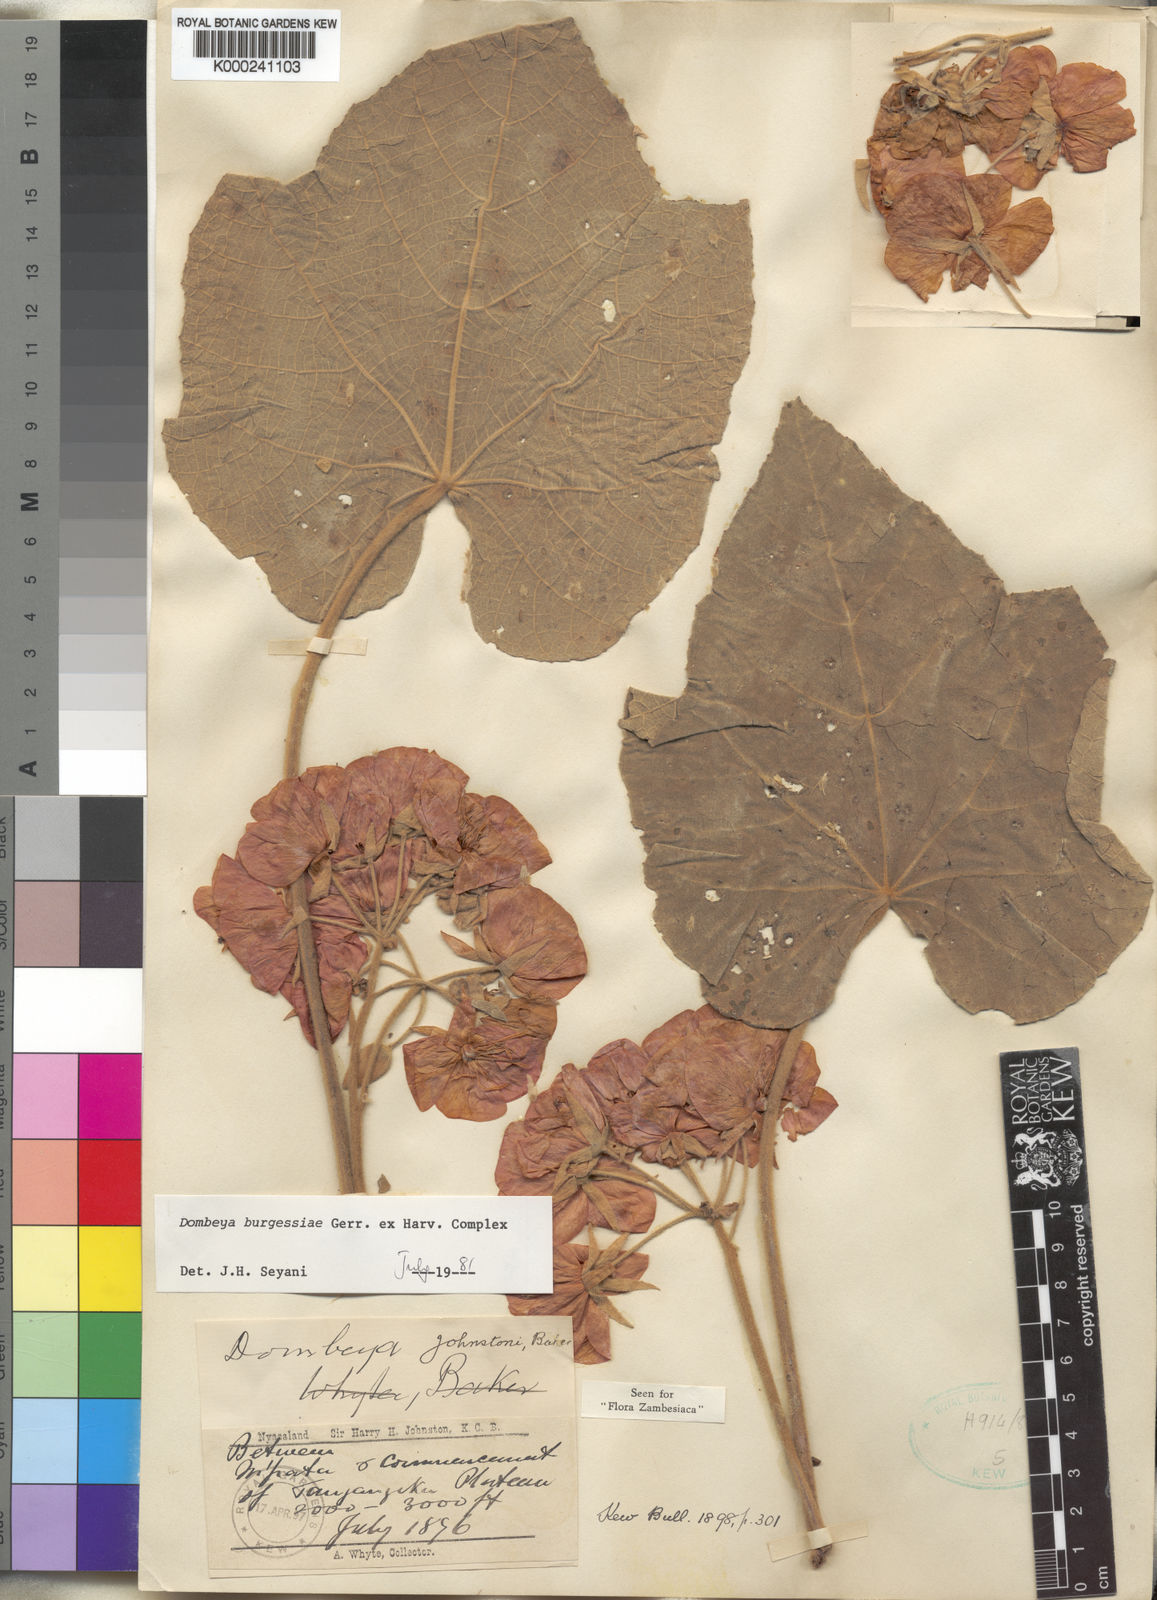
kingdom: Plantae
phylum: Tracheophyta
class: Magnoliopsida
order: Malvales
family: Malvaceae
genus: Dombeya
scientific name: Dombeya burgessiae
